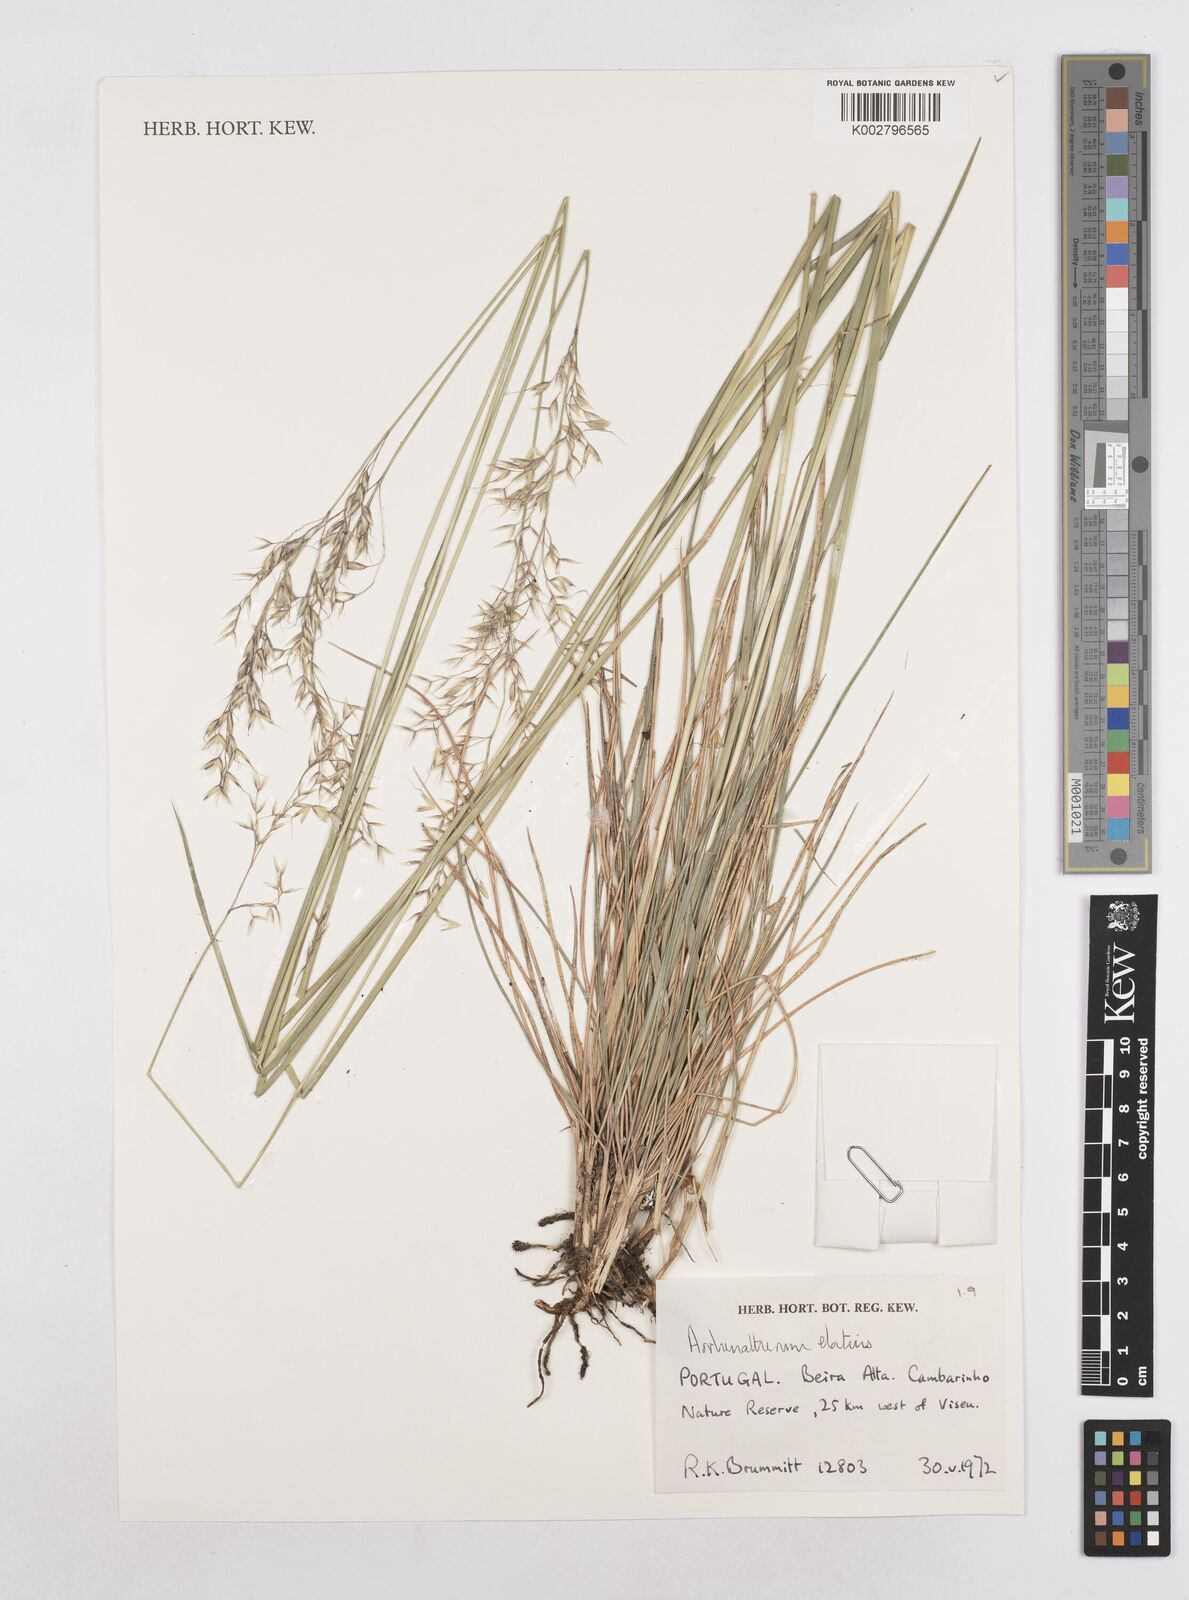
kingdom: Plantae
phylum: Tracheophyta
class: Liliopsida
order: Poales
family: Poaceae
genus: Arrhenatherum
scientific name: Arrhenatherum elatius
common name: Tall oatgrass
